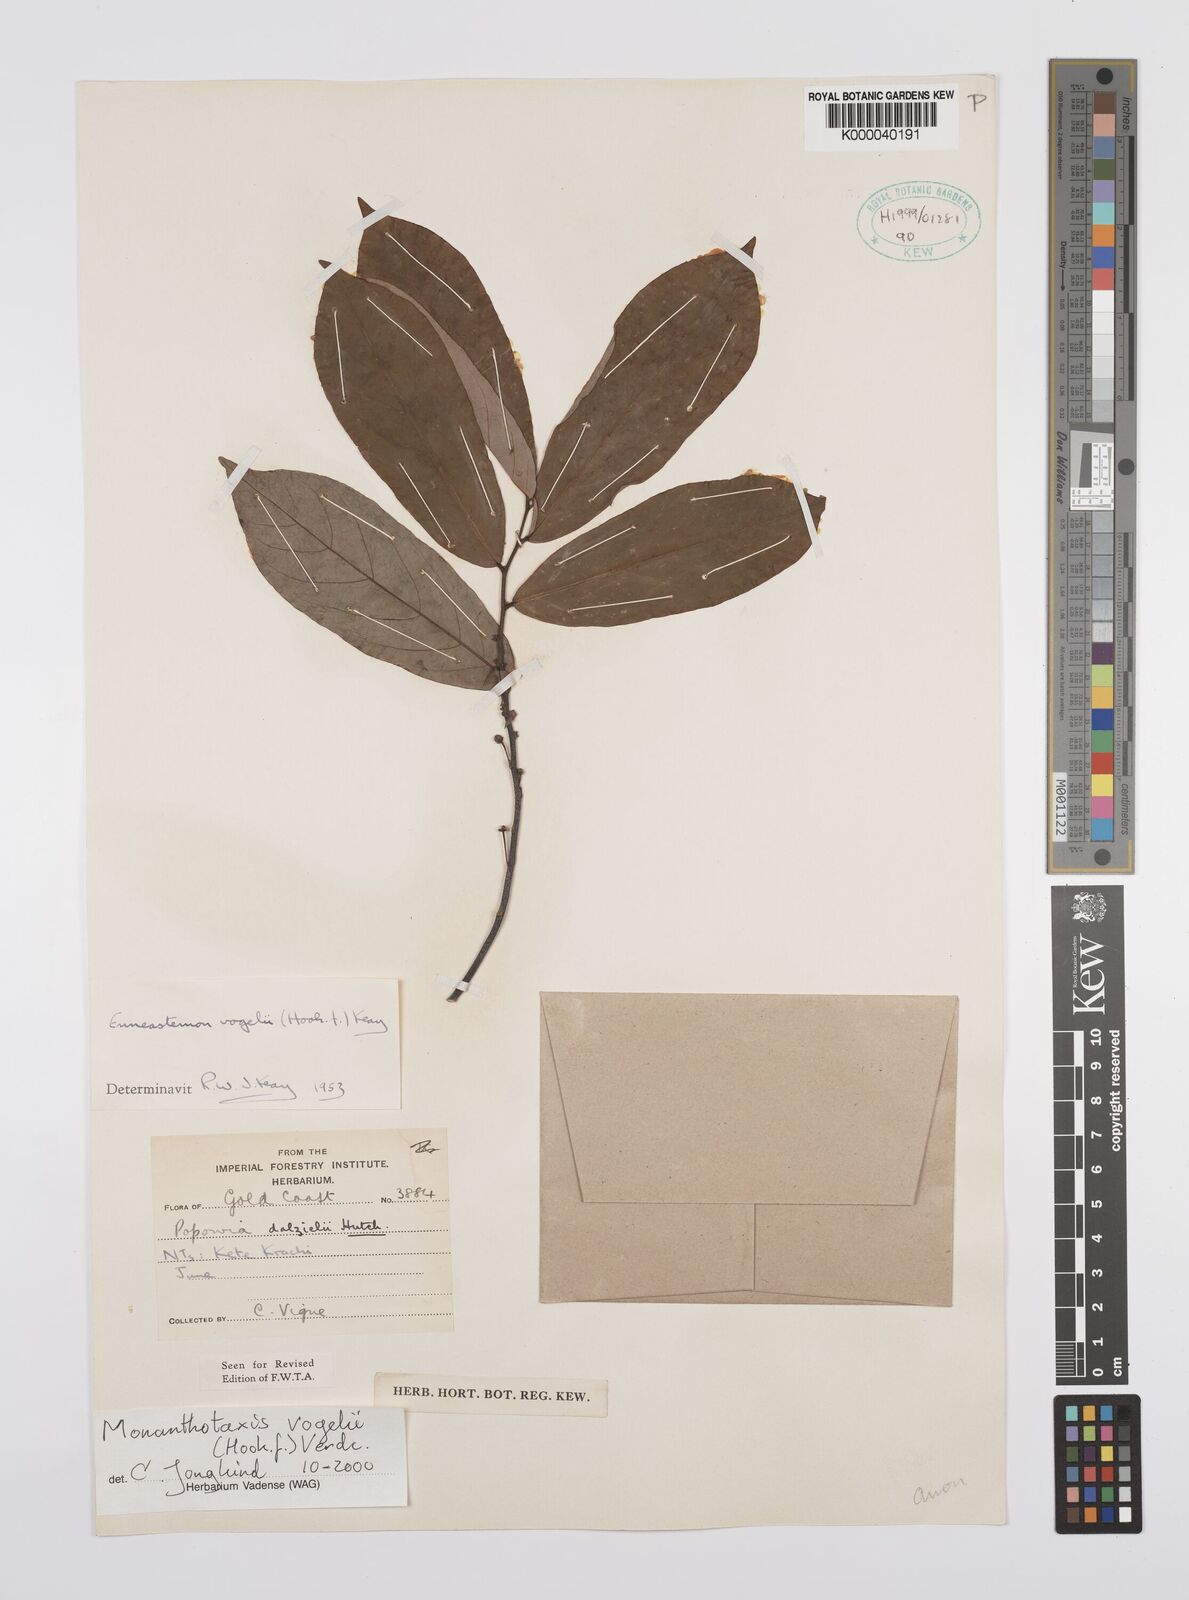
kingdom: Plantae
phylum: Tracheophyta
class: Magnoliopsida
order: Magnoliales
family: Annonaceae
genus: Monanthotaxis
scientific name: Monanthotaxis vogelii
